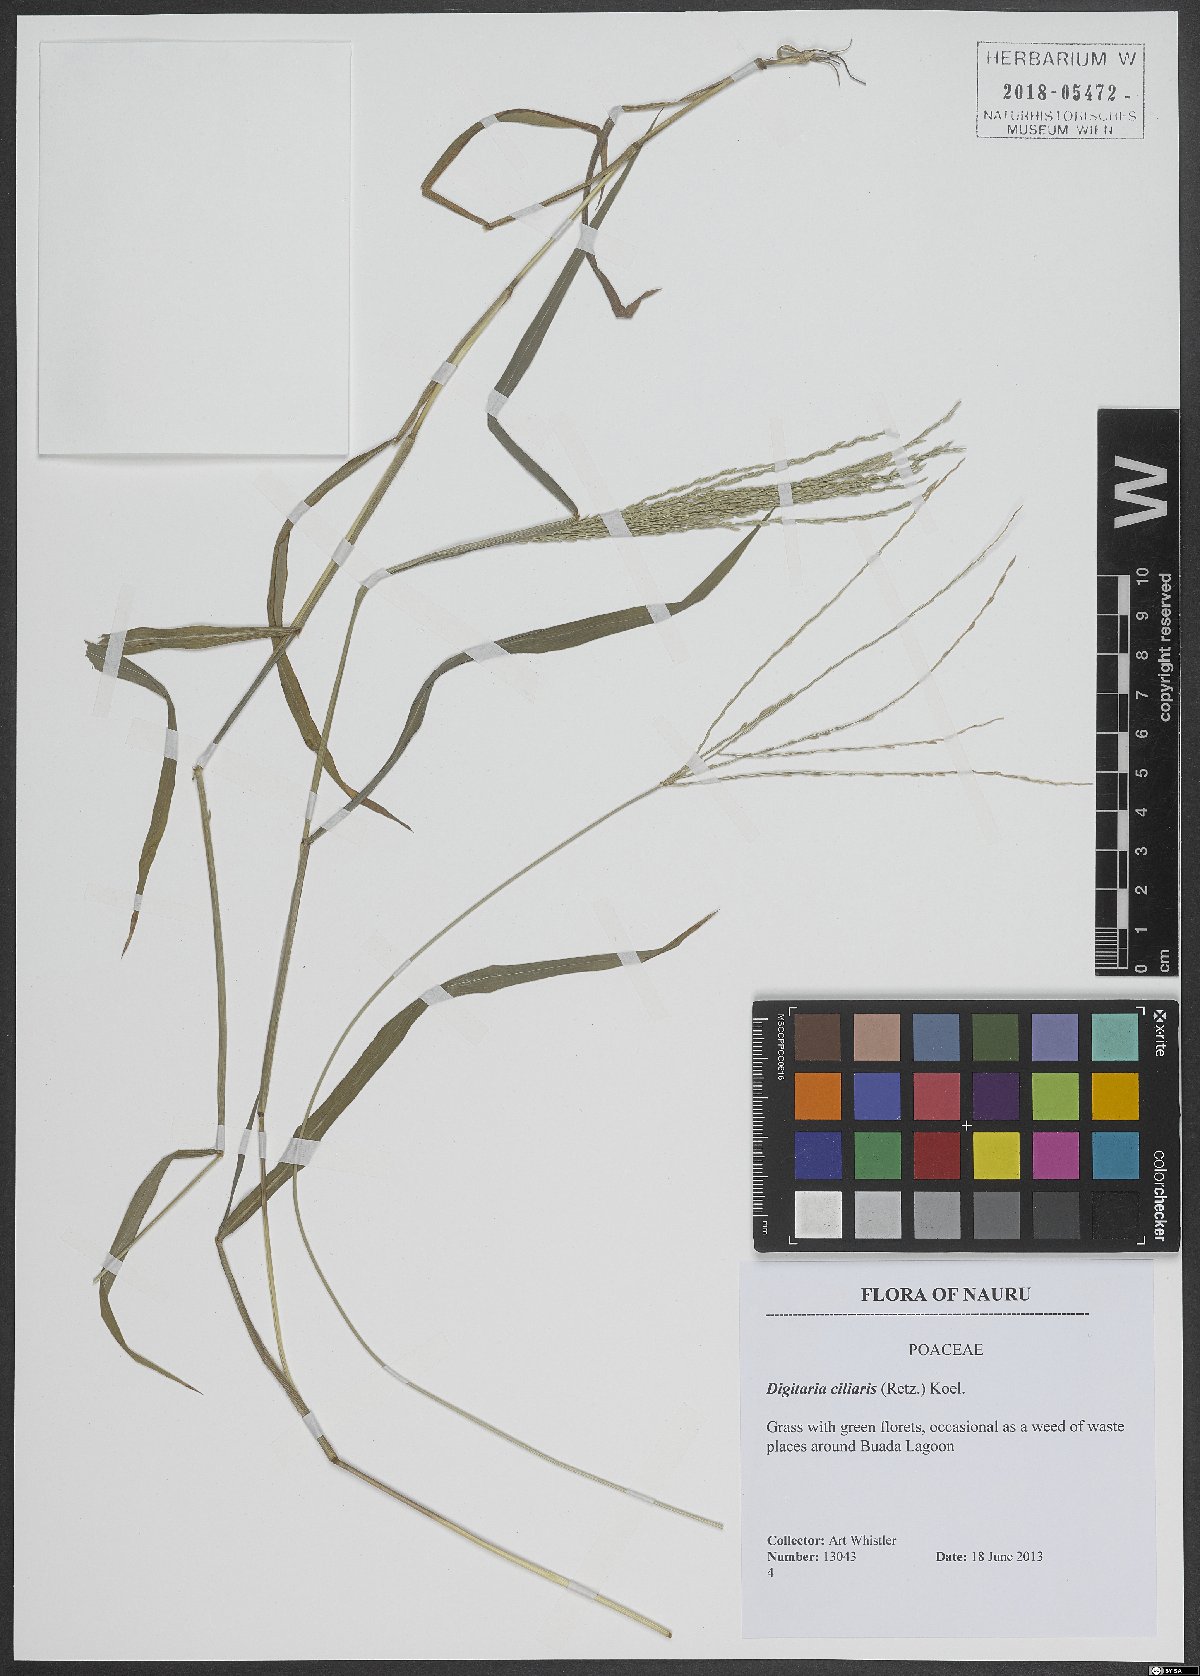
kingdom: Plantae
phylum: Tracheophyta
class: Liliopsida
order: Poales
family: Poaceae
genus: Digitaria
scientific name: Digitaria ciliaris
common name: Tropical finger-grass
